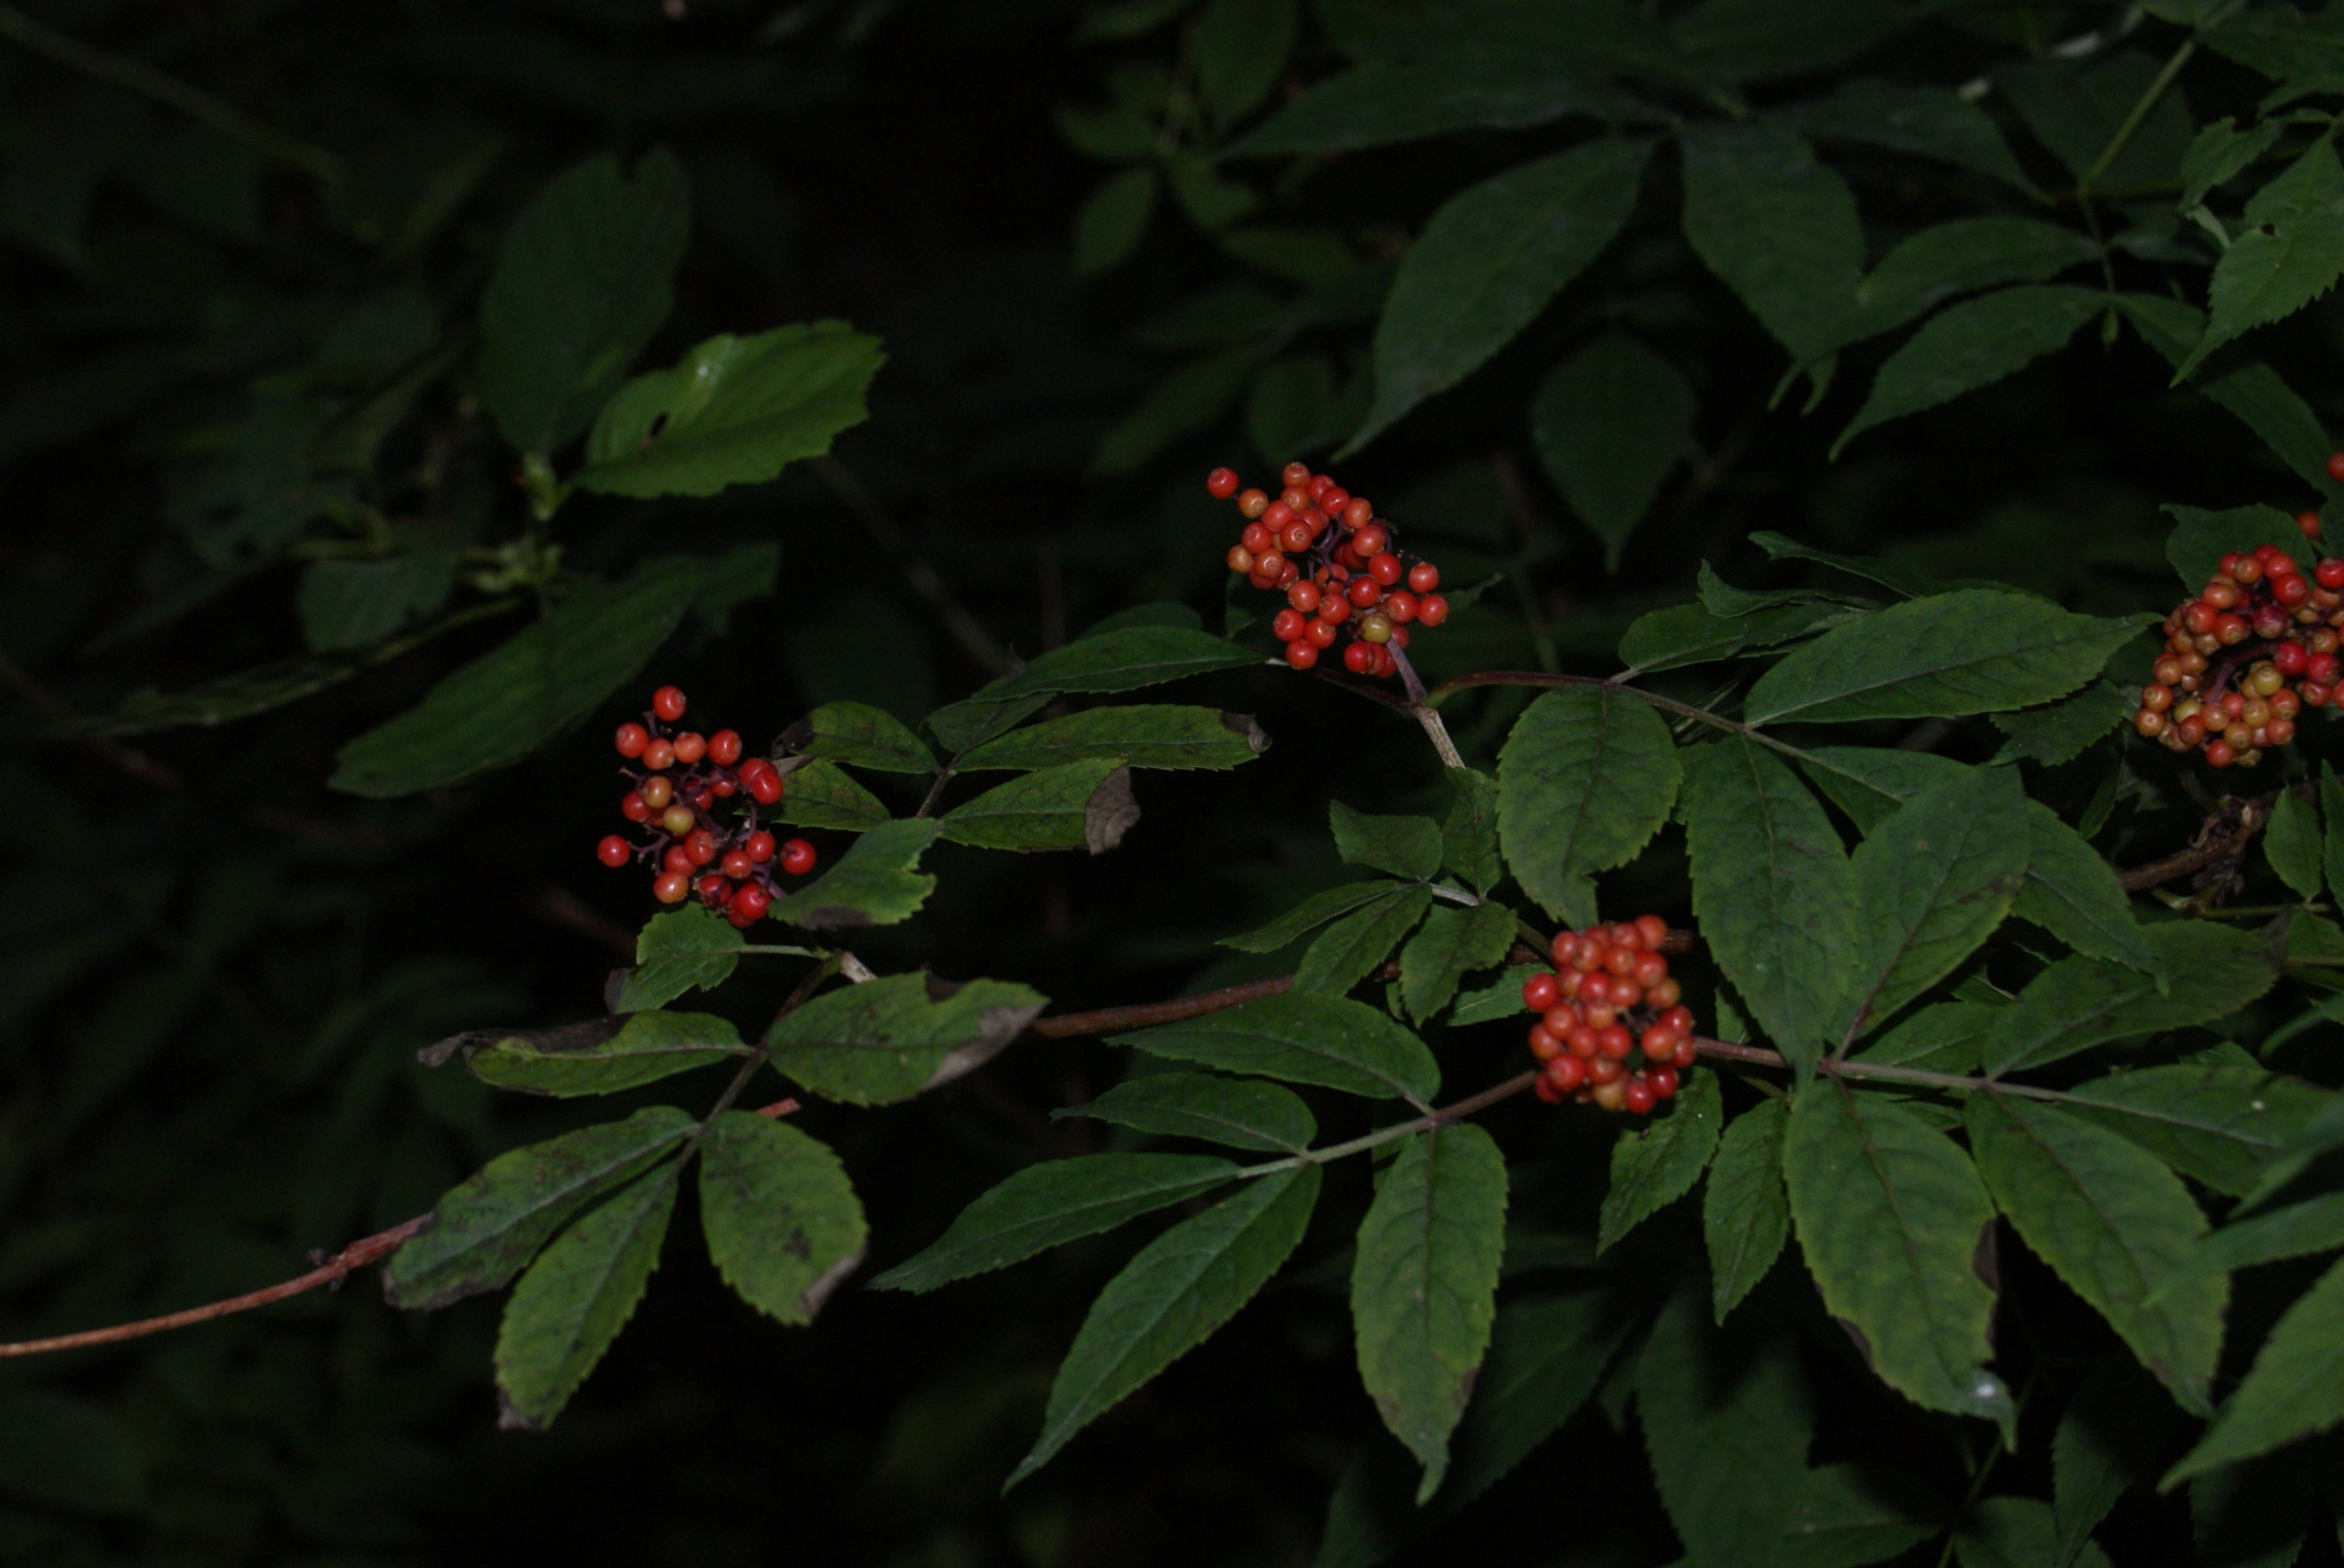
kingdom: Plantae
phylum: Tracheophyta
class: Magnoliopsida
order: Dipsacales
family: Viburnaceae
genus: Sambucus
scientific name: Sambucus racemosa
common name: Drue-hyld
